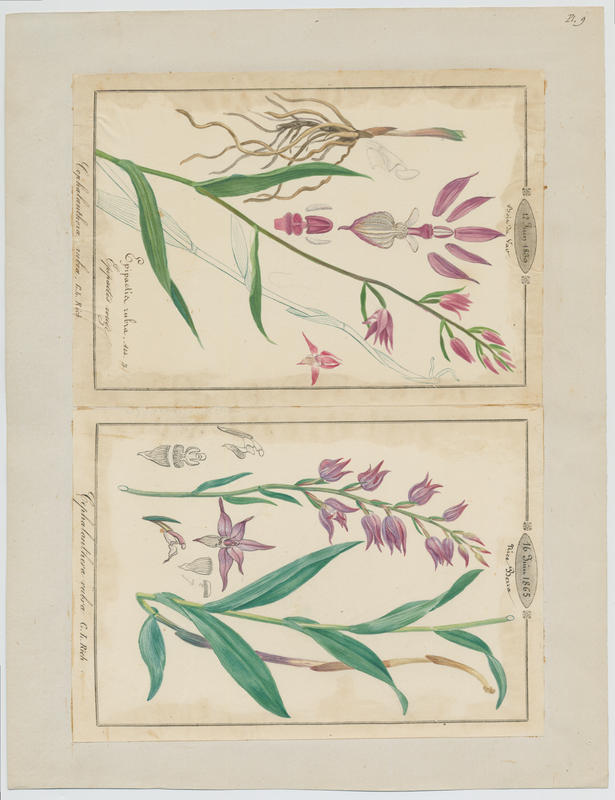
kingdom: Plantae
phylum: Tracheophyta
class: Liliopsida
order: Asparagales
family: Orchidaceae
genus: Cephalanthera
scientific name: Cephalanthera rubra
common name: Red helleborine
